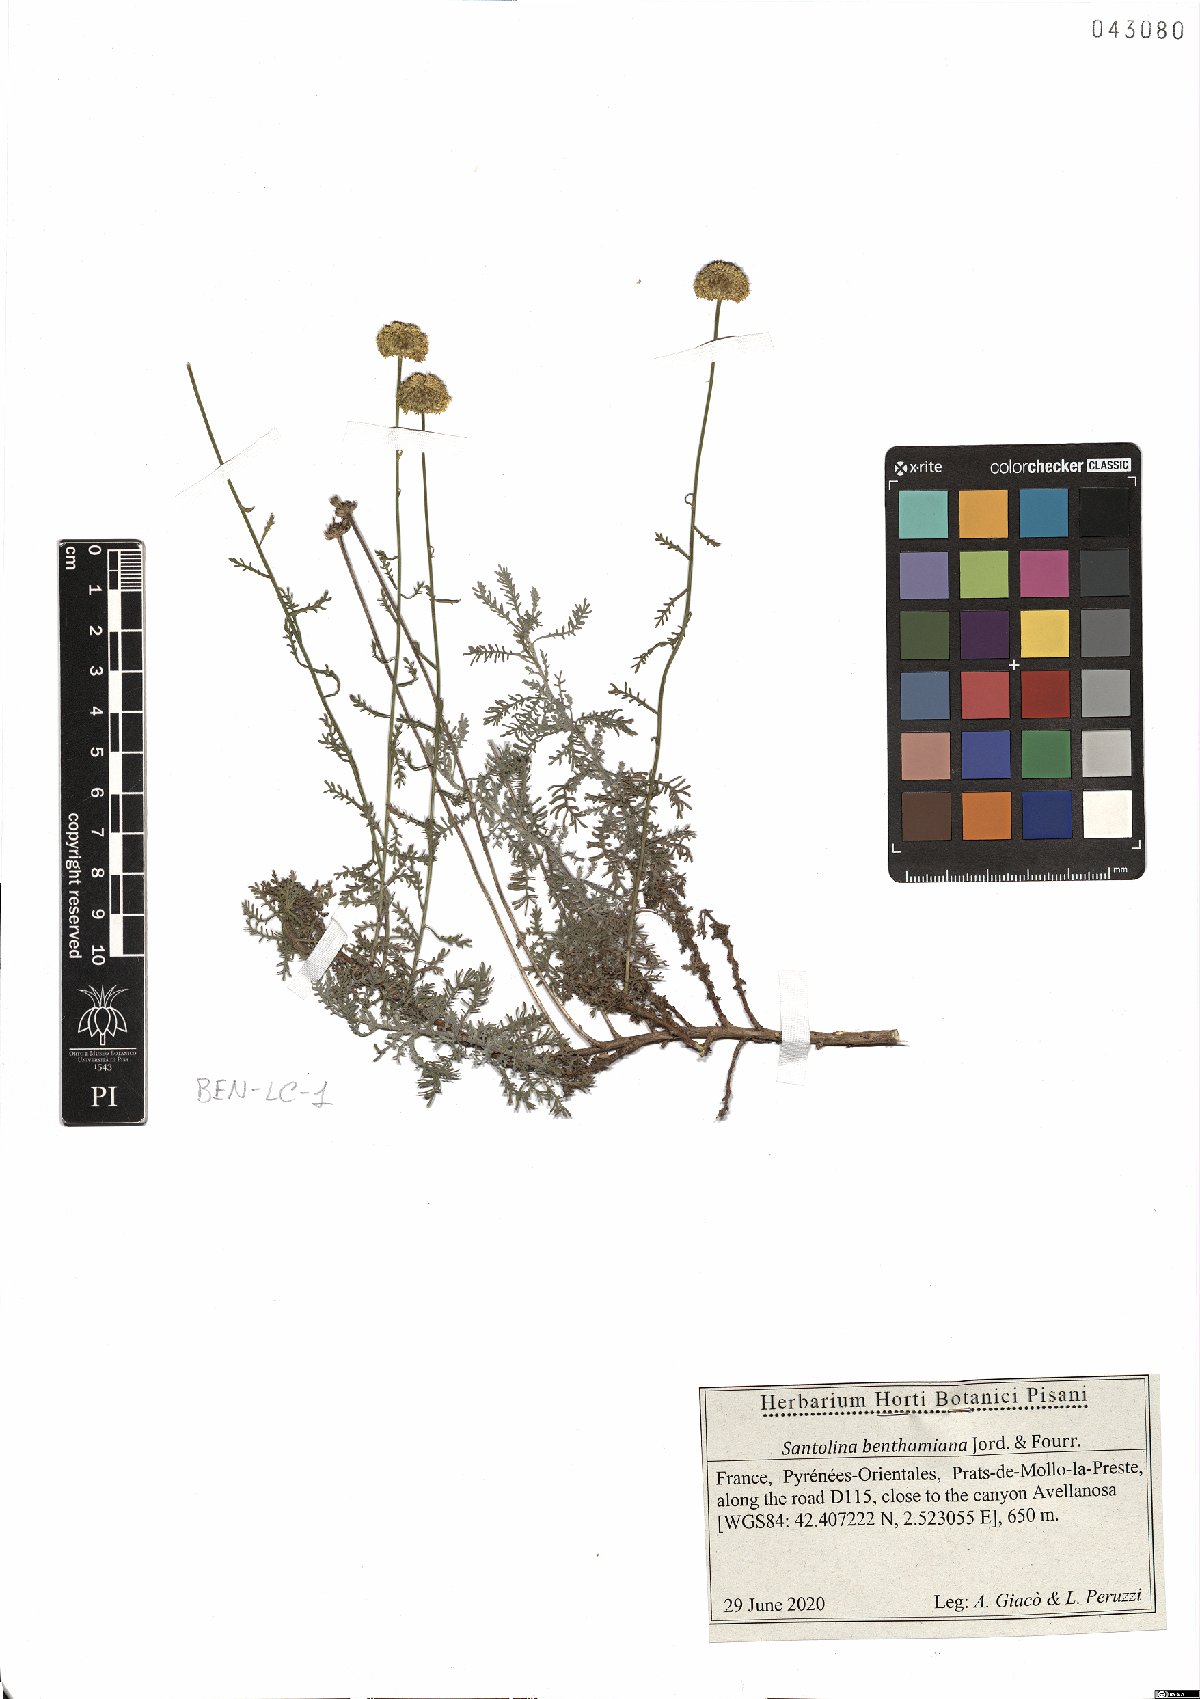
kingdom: Plantae
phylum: Tracheophyta
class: Magnoliopsida
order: Asterales
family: Asteraceae
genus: Santolina
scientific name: Santolina benthamiana
